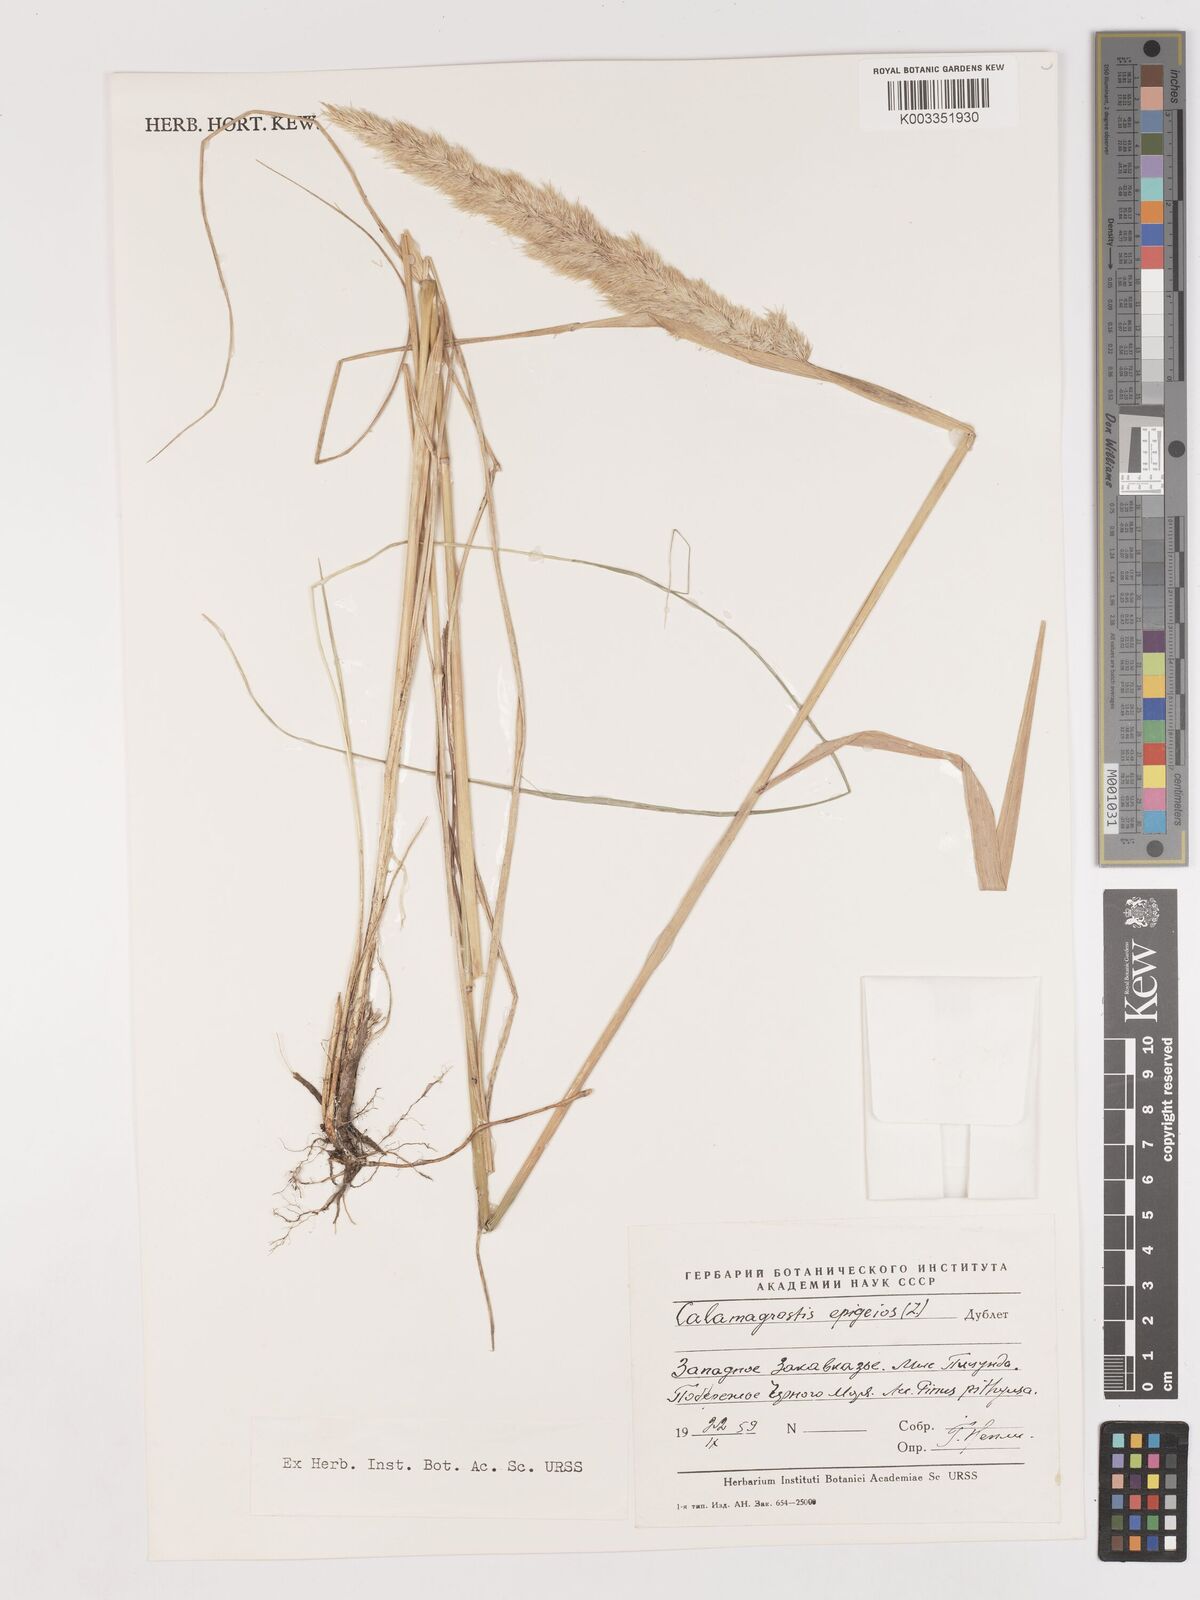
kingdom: Plantae
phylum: Tracheophyta
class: Liliopsida
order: Poales
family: Poaceae
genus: Calamagrostis
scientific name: Calamagrostis epigejos
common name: Wood small-reed
